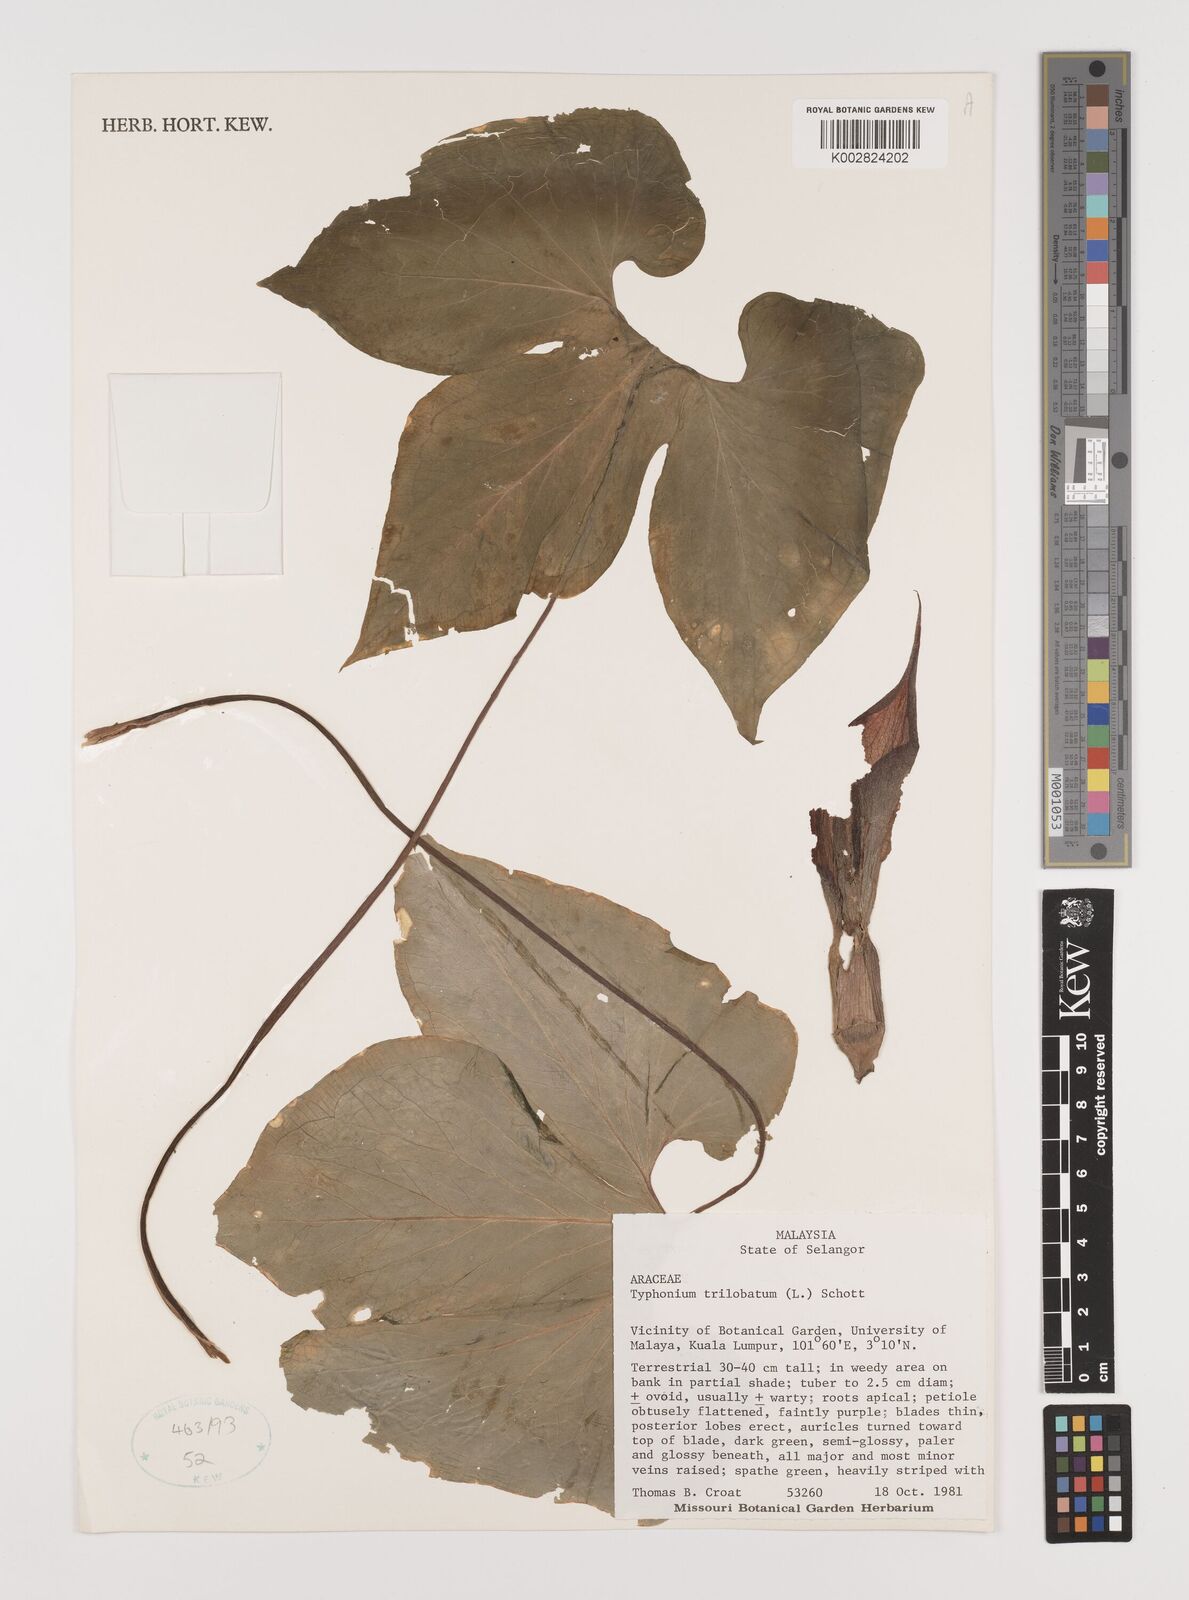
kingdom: Plantae
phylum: Tracheophyta
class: Liliopsida
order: Alismatales
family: Araceae
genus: Typhonium
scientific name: Typhonium trilobatum
